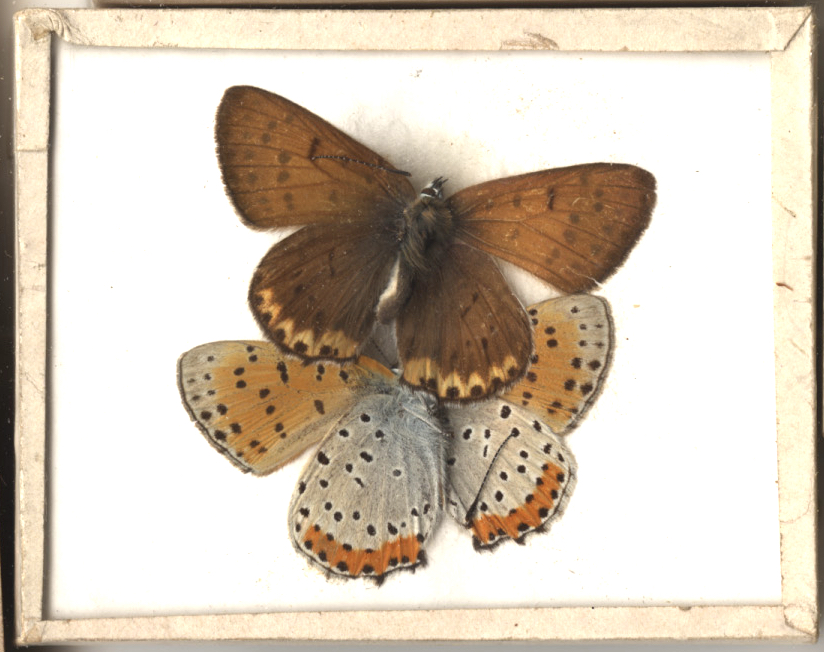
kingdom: Animalia
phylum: Arthropoda
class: Insecta
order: Lepidoptera
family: Sesiidae
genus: Sesia
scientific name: Sesia Lycaena hyllus
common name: Bronze Copper
